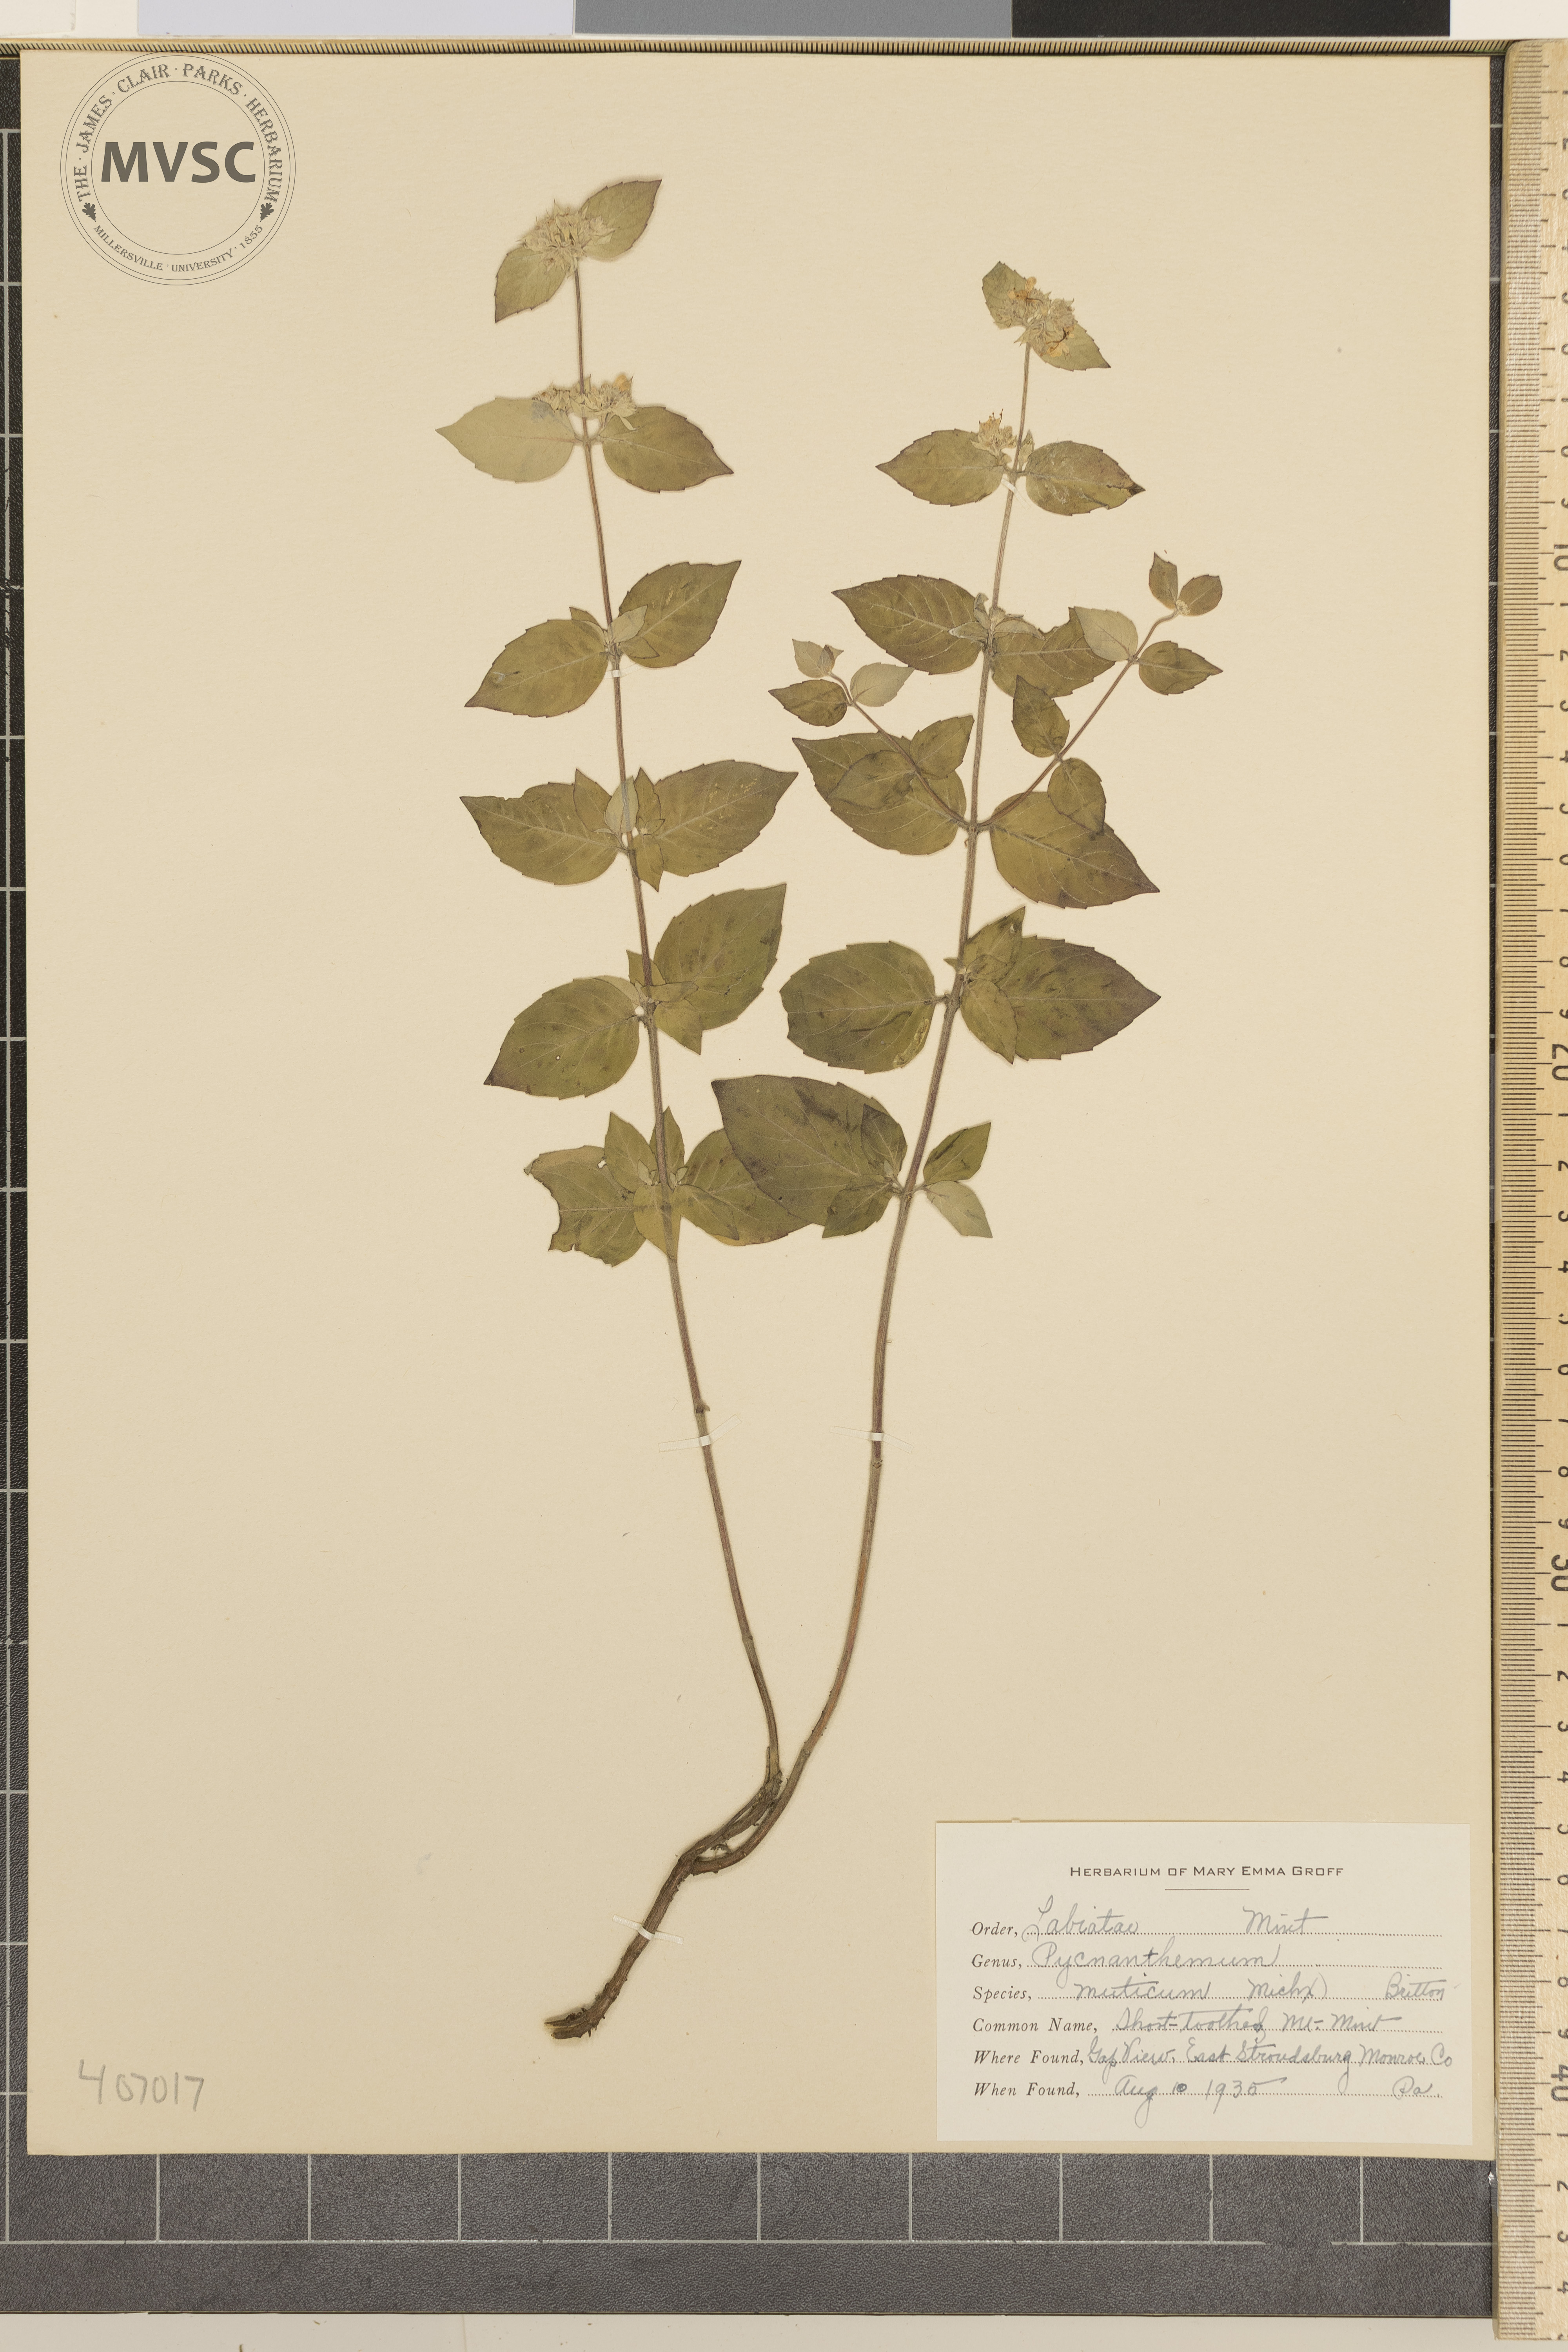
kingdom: Plantae
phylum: Tracheophyta
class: Magnoliopsida
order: Lamiales
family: Lamiaceae
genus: Pycnanthemum
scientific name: Pycnanthemum muticum
